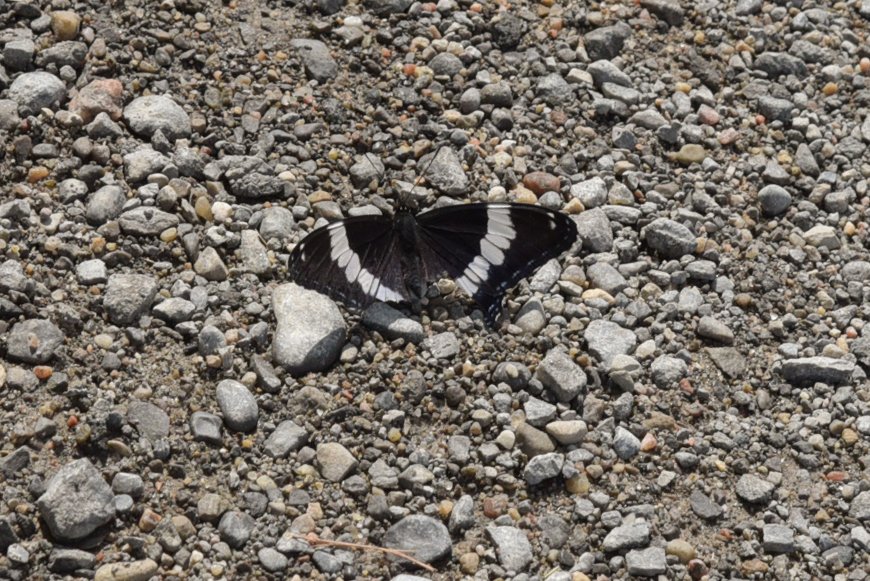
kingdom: Animalia
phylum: Arthropoda
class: Insecta
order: Lepidoptera
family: Nymphalidae
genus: Limenitis
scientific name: Limenitis arthemis
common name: Red-spotted Admiral
